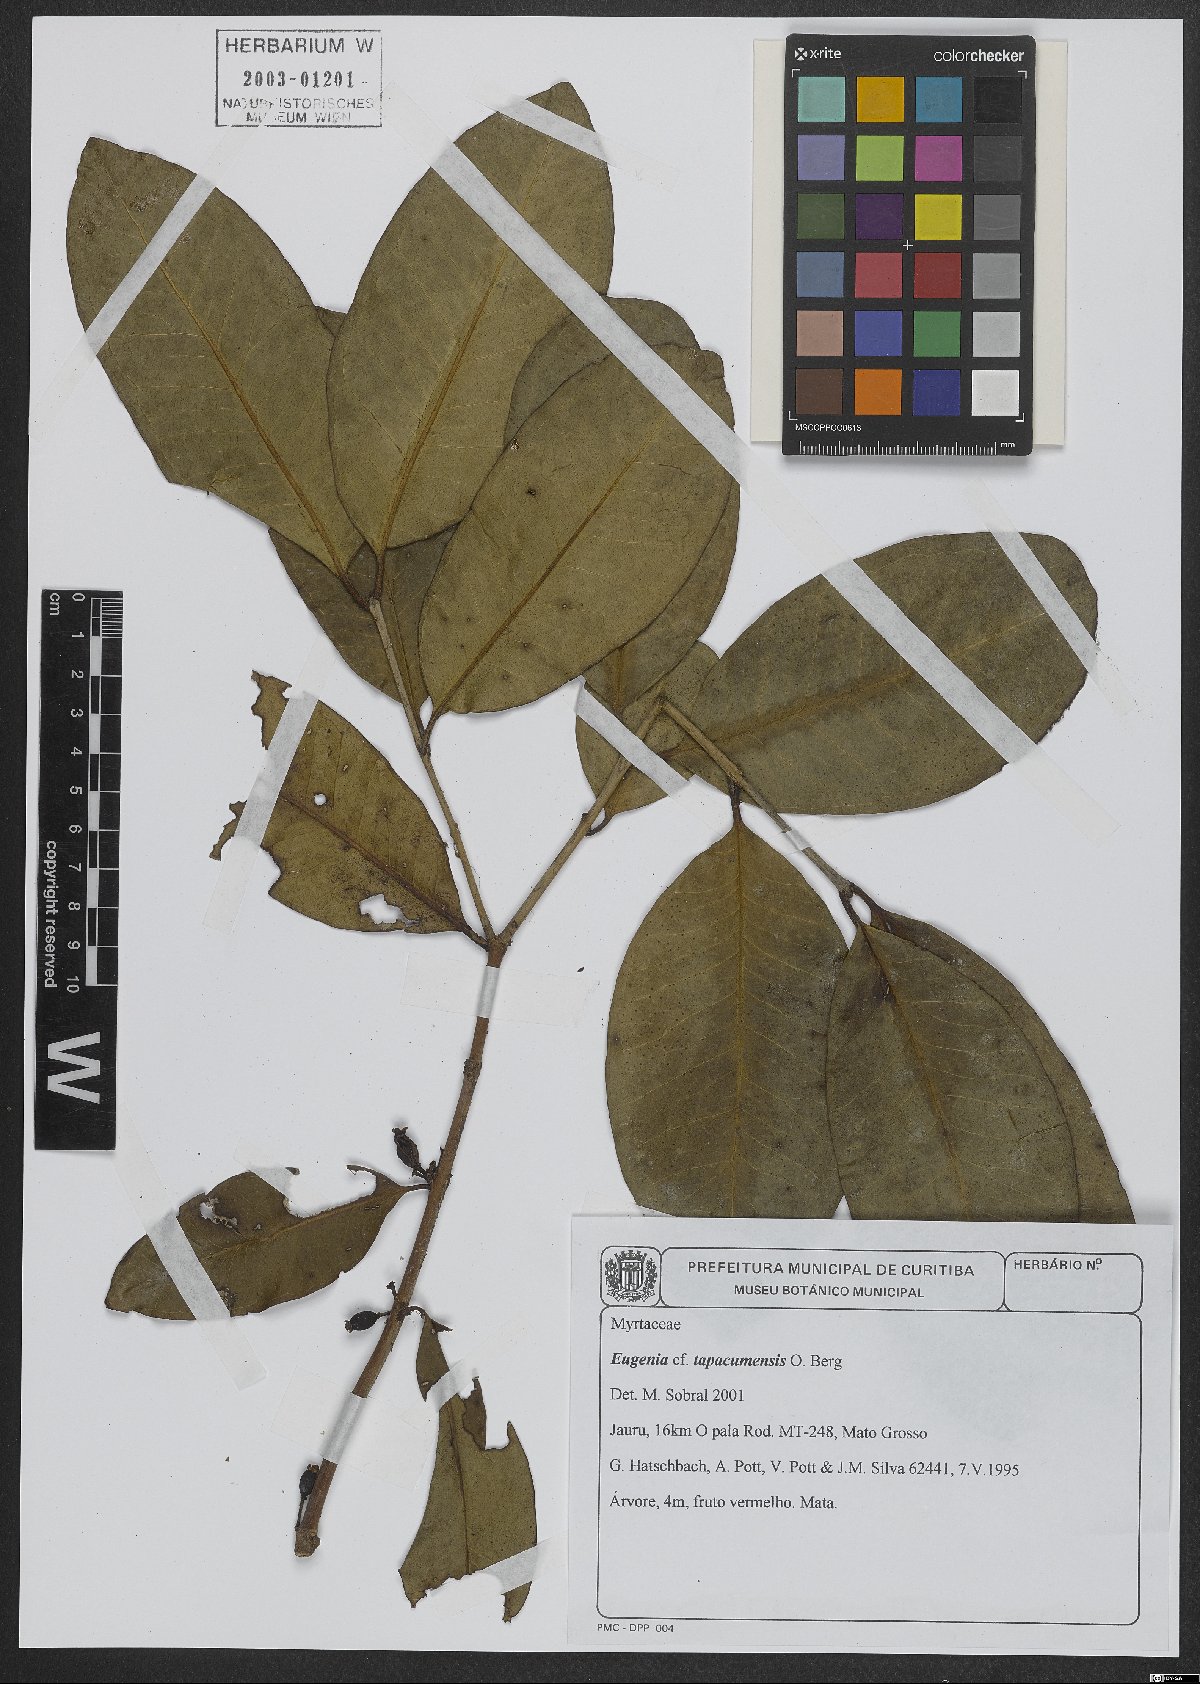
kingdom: Plantae
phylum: Tracheophyta
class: Magnoliopsida
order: Myrtales
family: Myrtaceae
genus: Eugenia
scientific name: Eugenia tapacumensis
